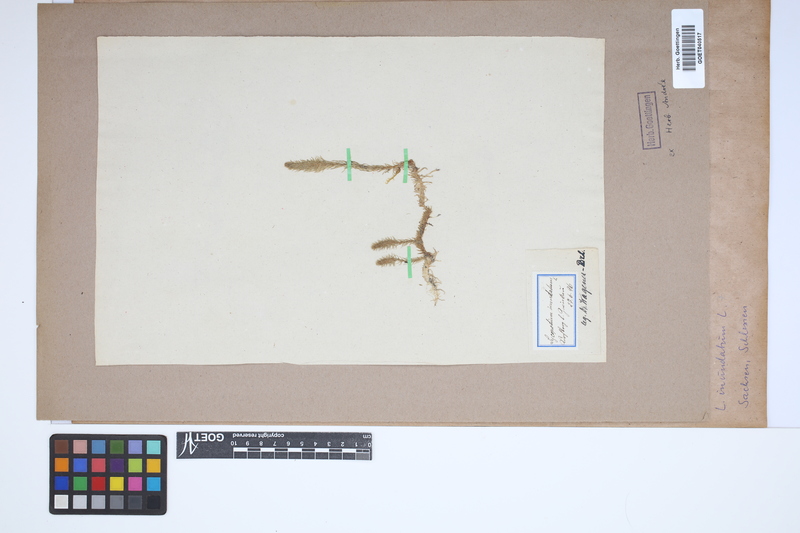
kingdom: Plantae
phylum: Tracheophyta
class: Lycopodiopsida
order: Lycopodiales
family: Lycopodiaceae
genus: Lycopodiella
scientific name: Lycopodiella inundata
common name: Marsh clubmoss
